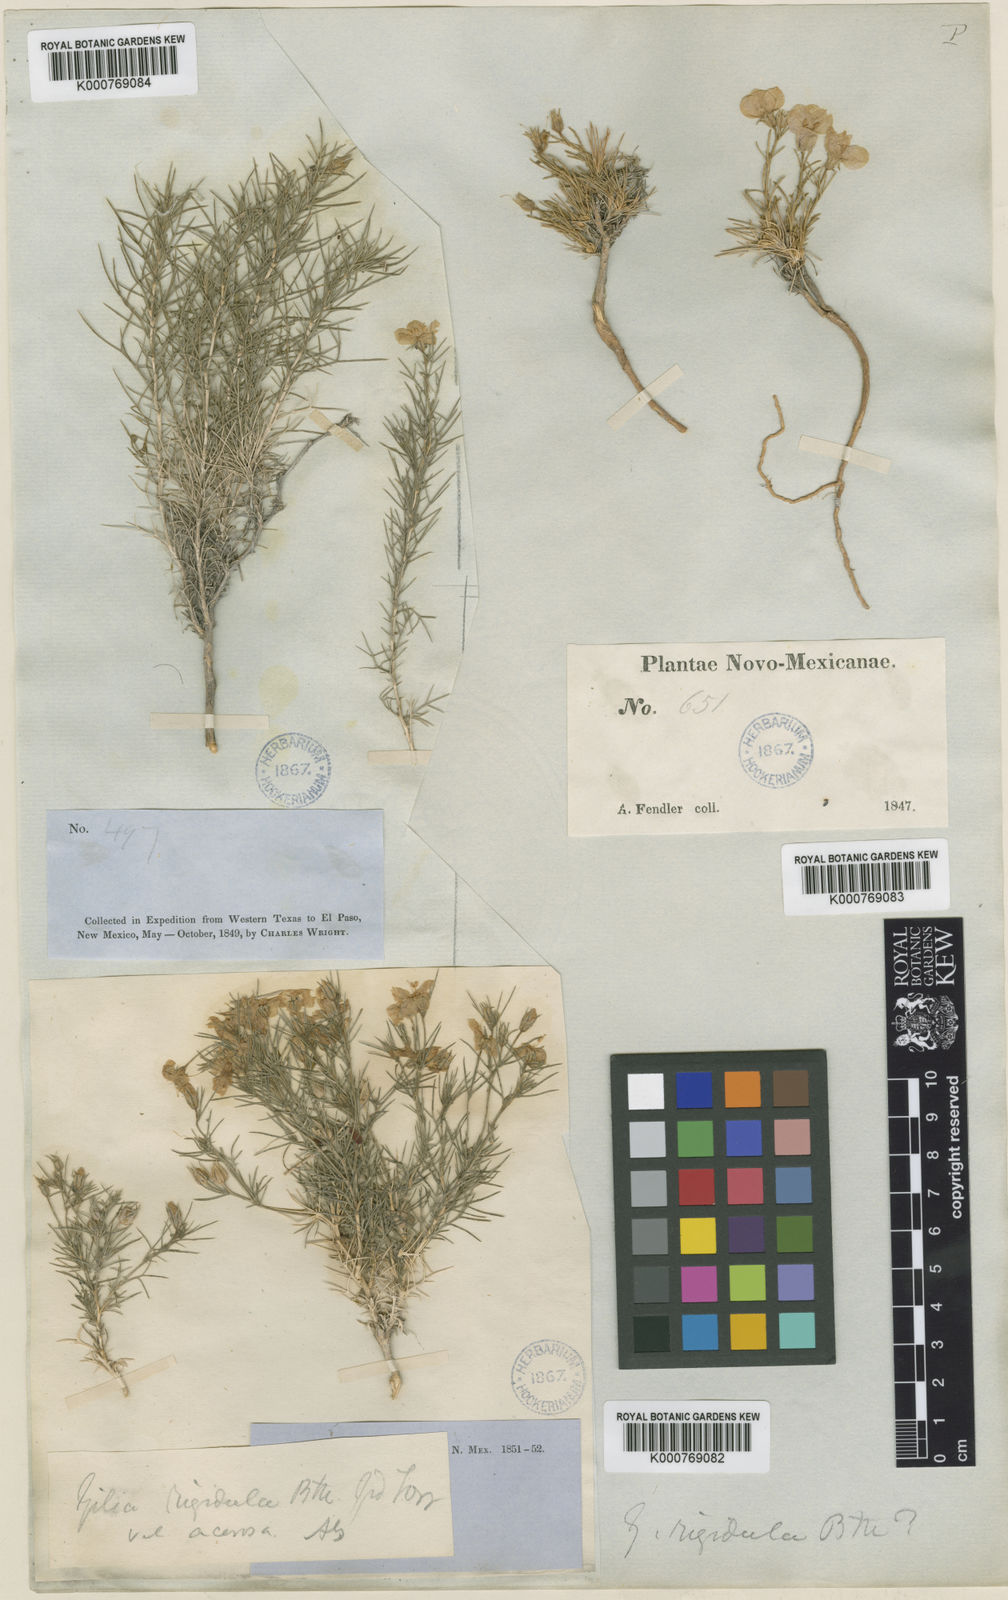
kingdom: Plantae
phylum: Tracheophyta
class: Magnoliopsida
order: Ericales
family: Polemoniaceae
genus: Giliastrum
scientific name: Giliastrum rigidulum
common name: Bluebowls
